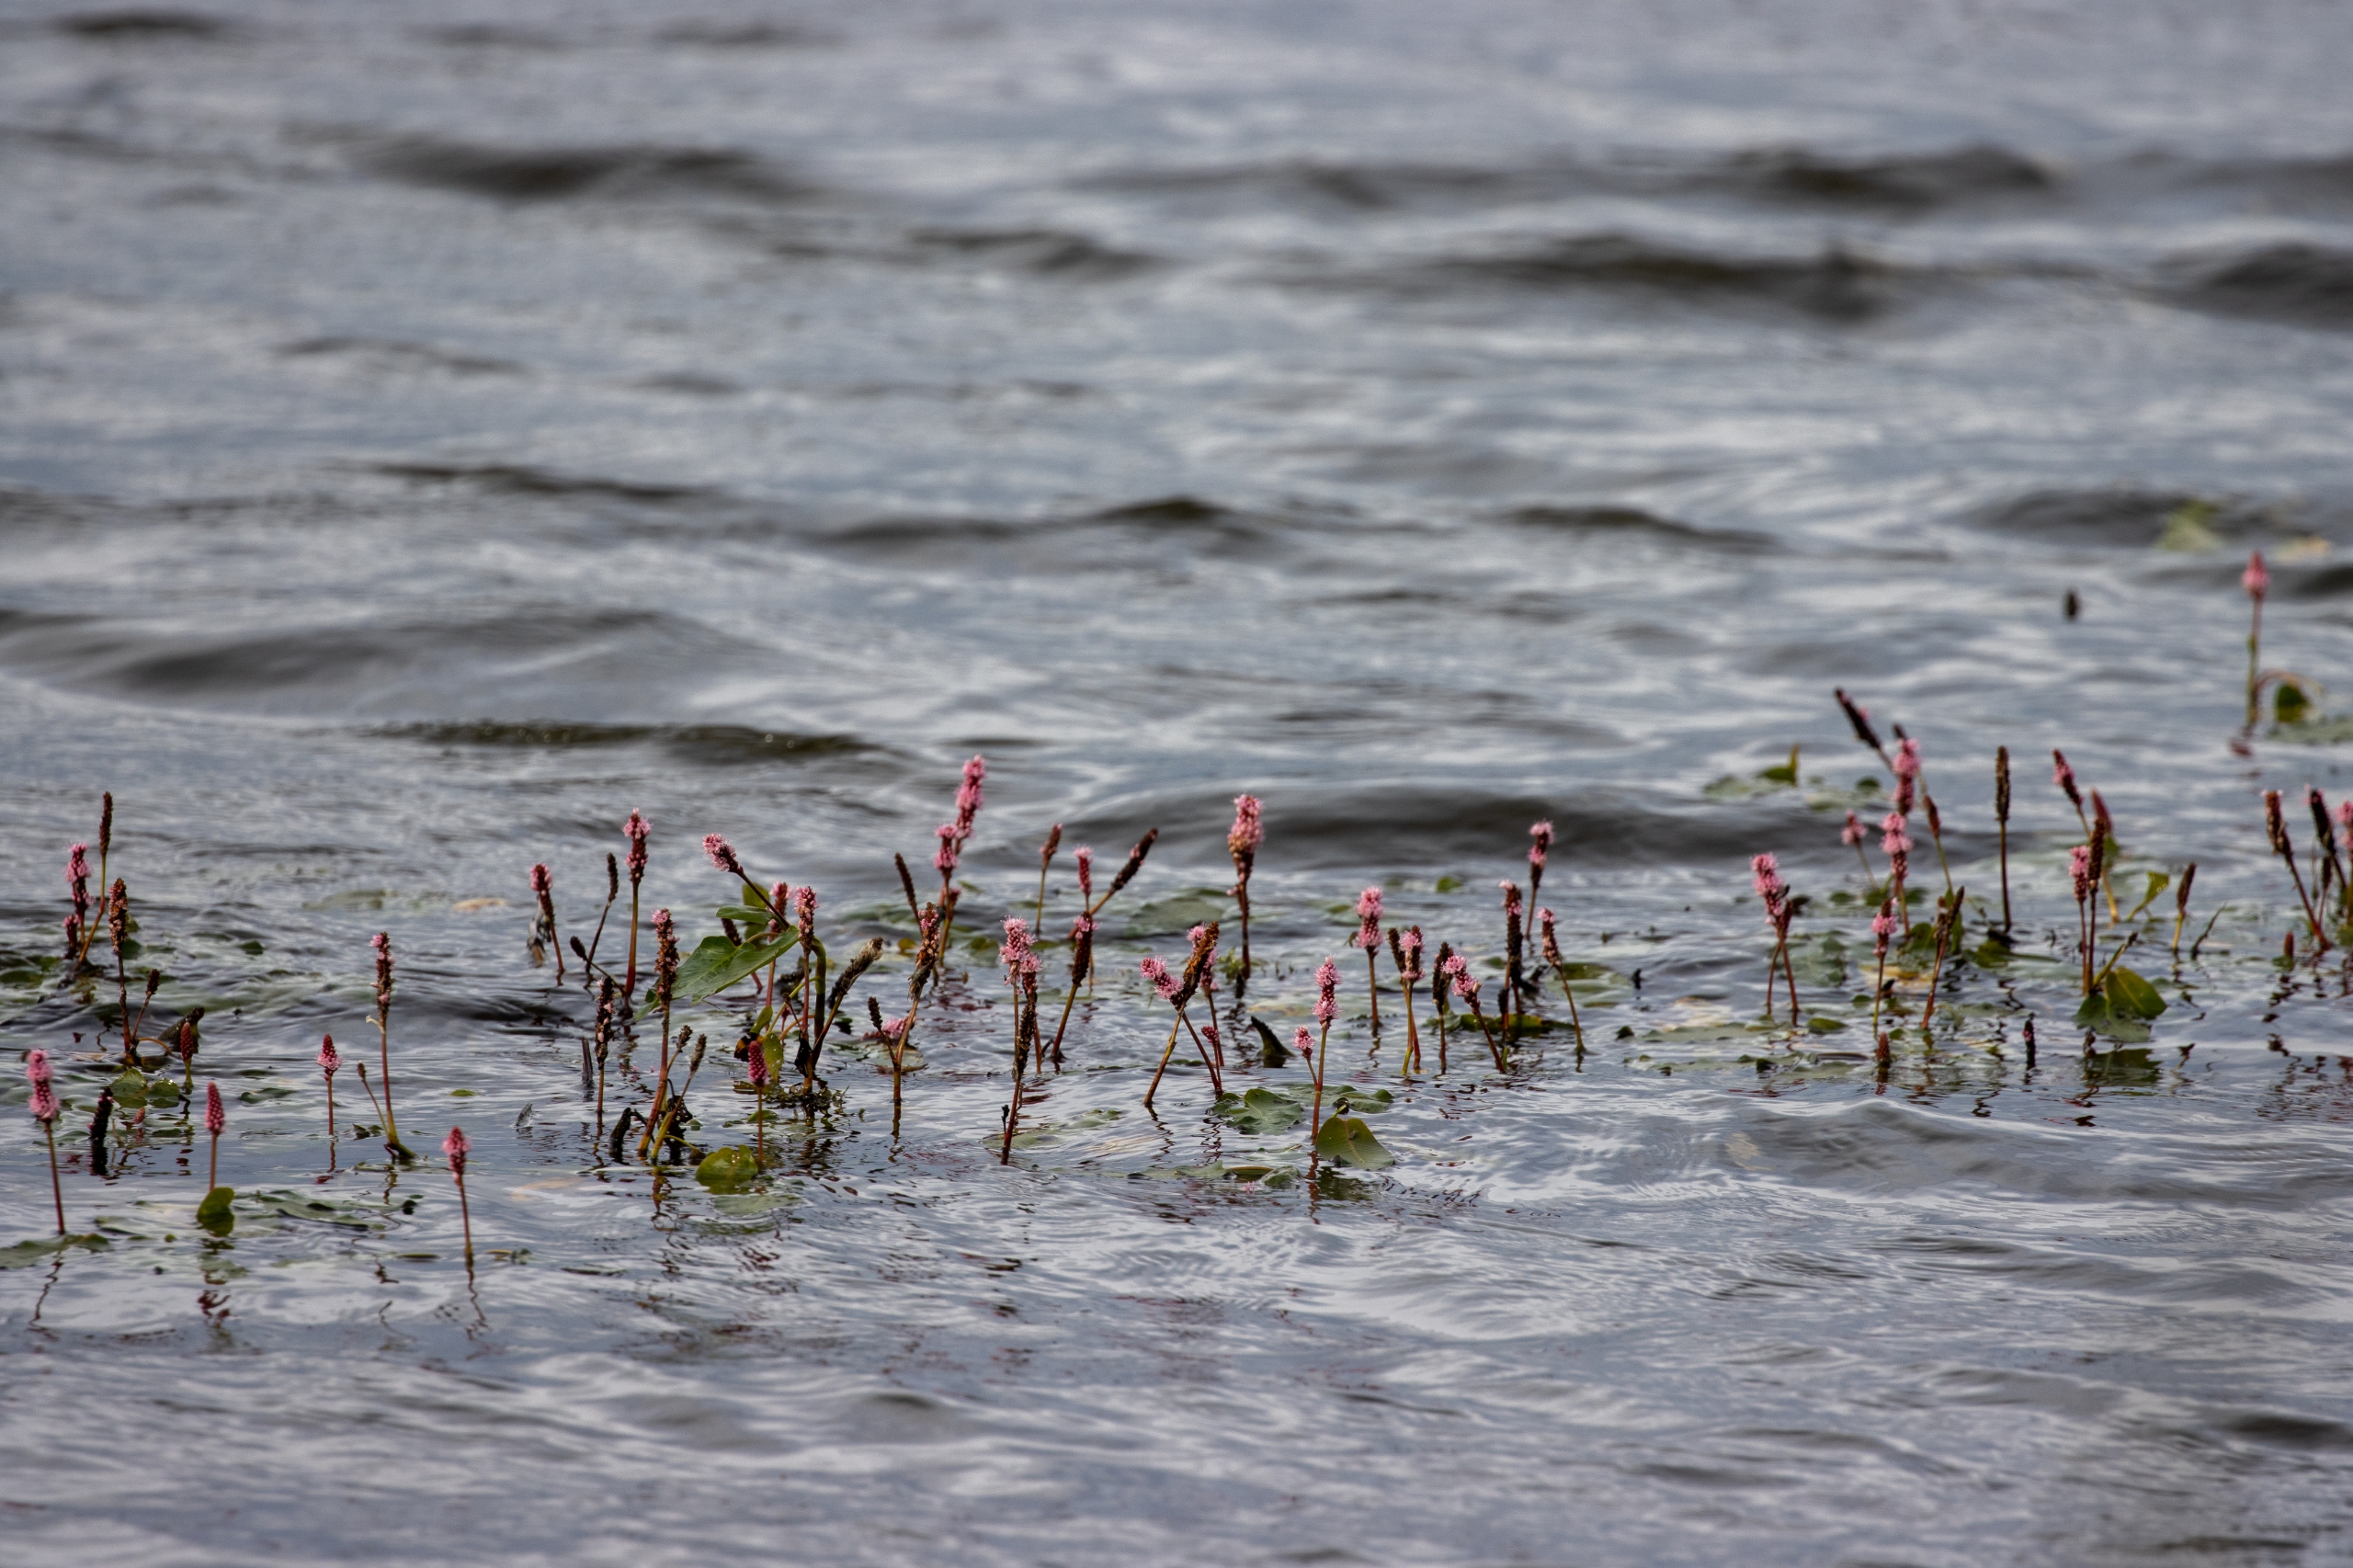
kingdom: Plantae
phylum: Tracheophyta
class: Magnoliopsida
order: Caryophyllales
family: Polygonaceae
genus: Persicaria
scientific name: Persicaria amphibia
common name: Vand-pileurt
